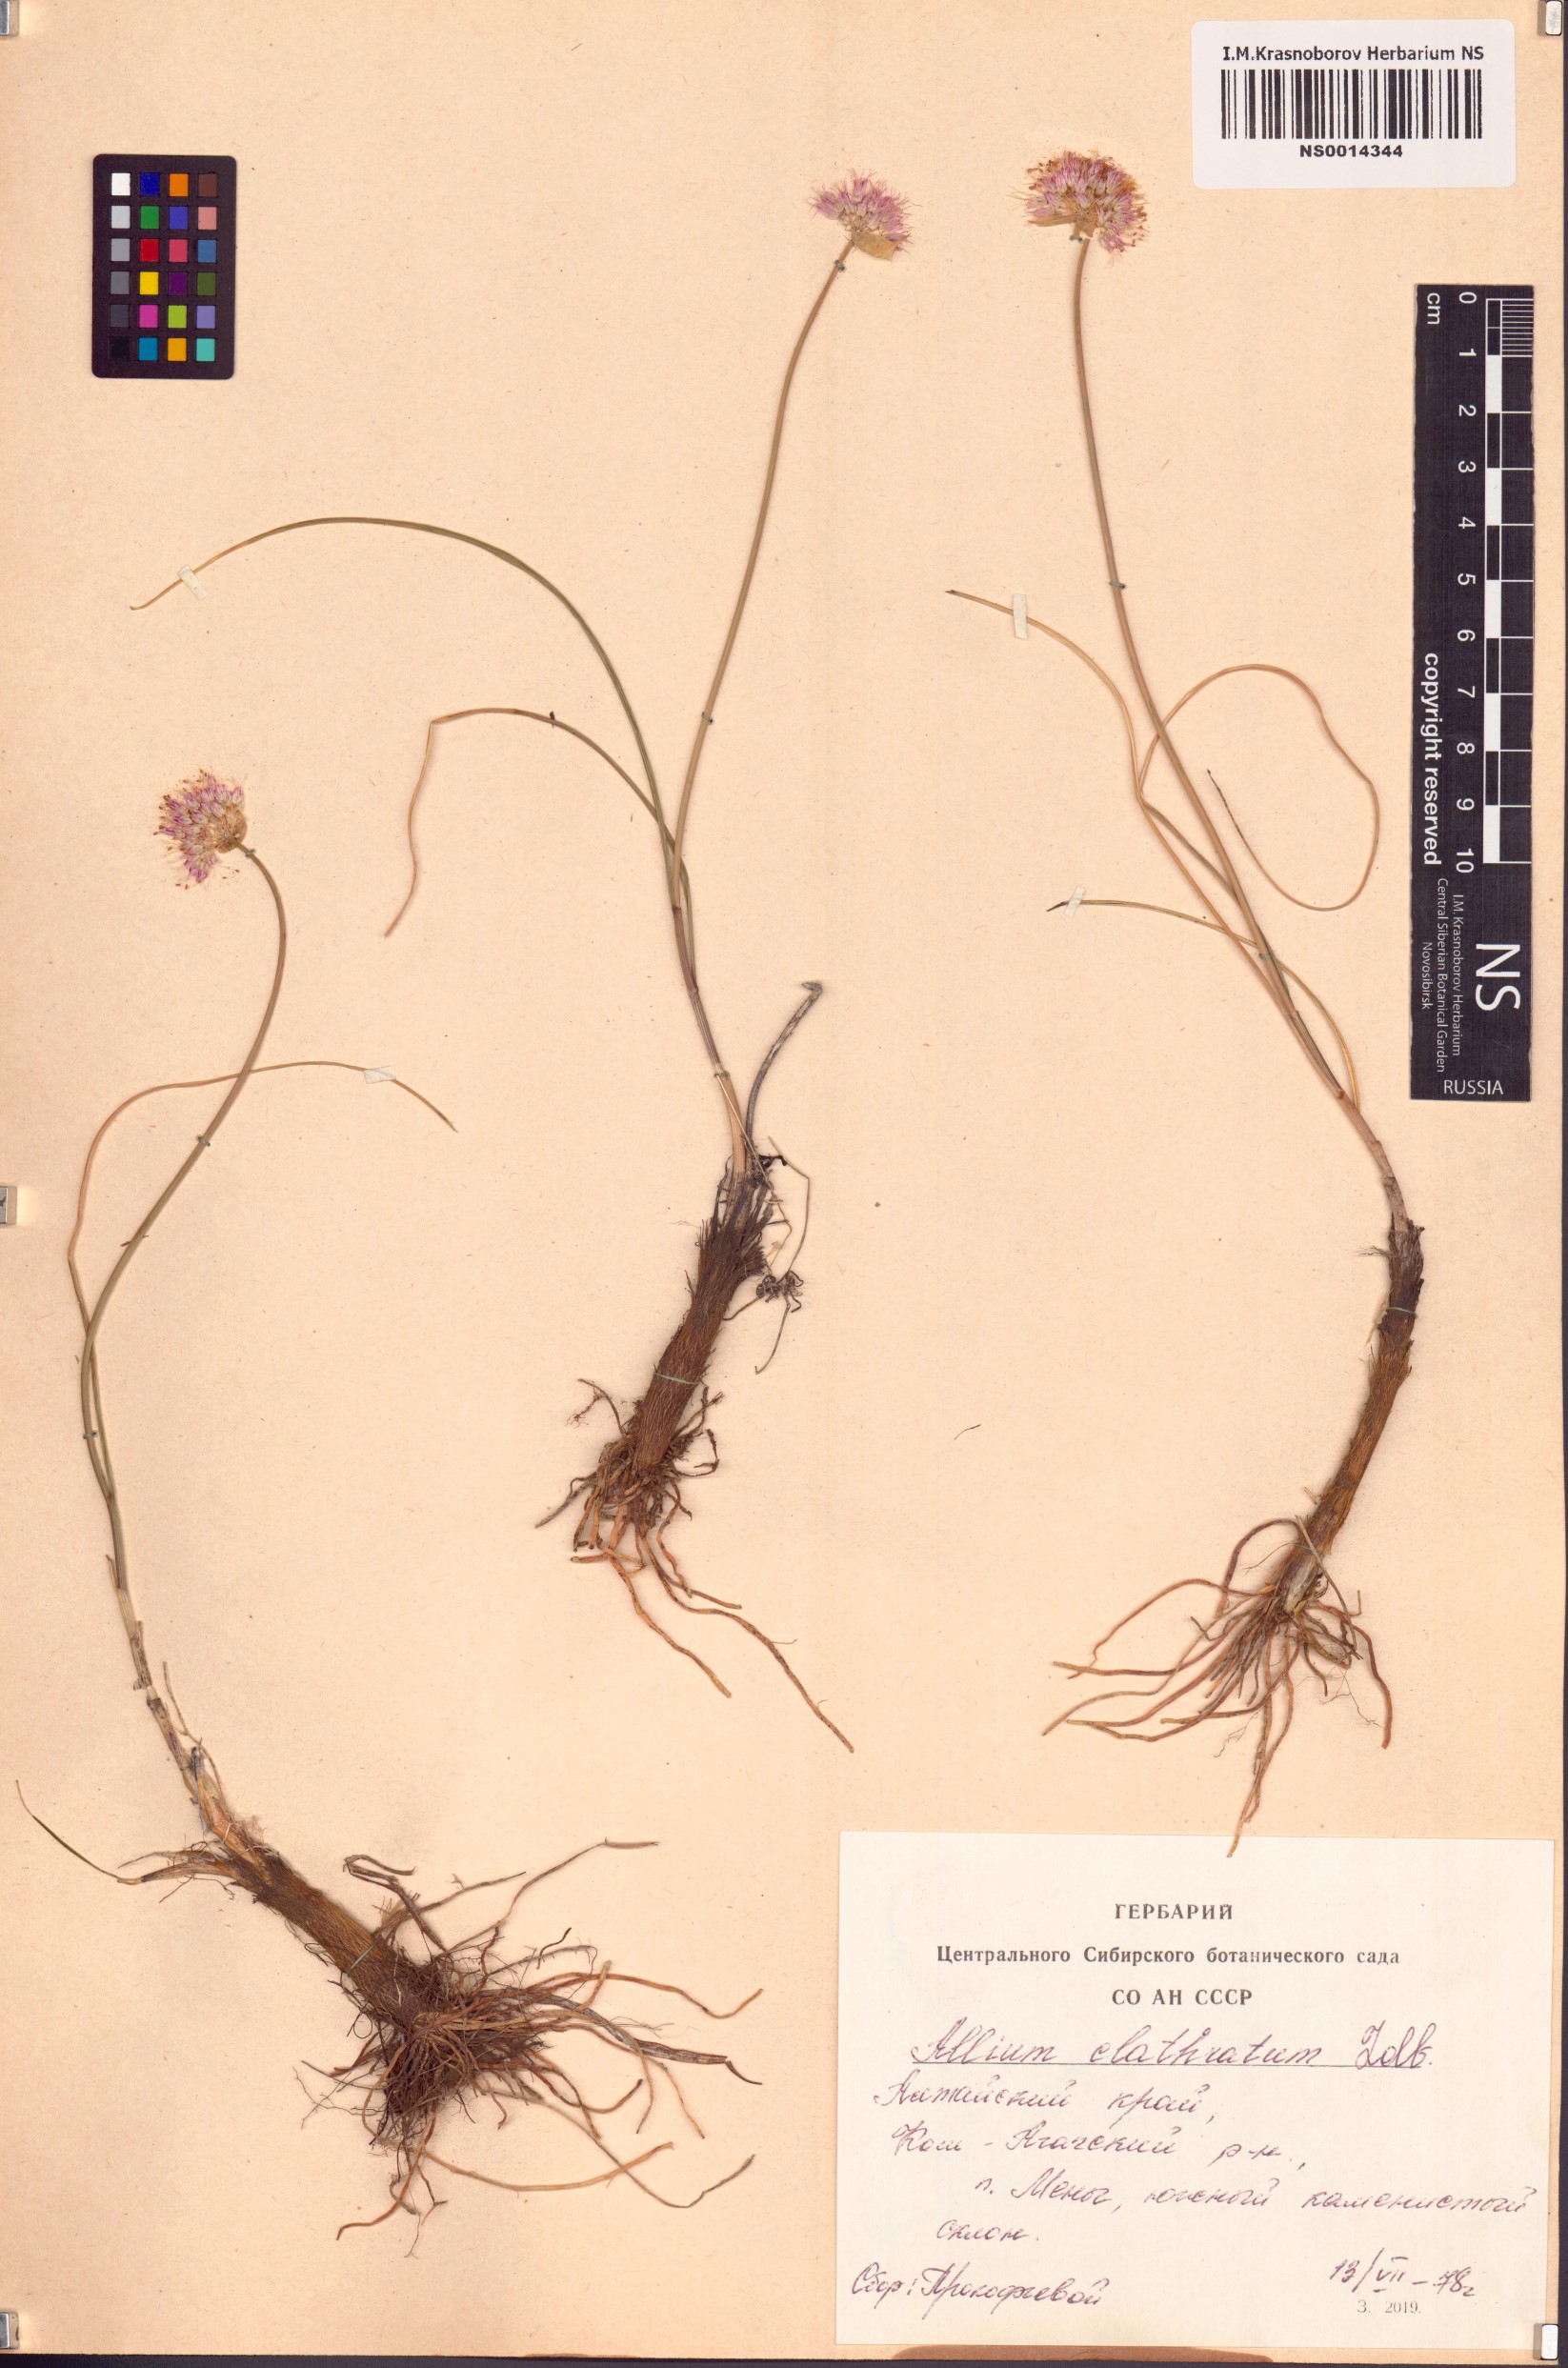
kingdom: Plantae
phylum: Tracheophyta
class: Liliopsida
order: Asparagales
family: Amaryllidaceae
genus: Allium
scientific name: Allium clathratum
